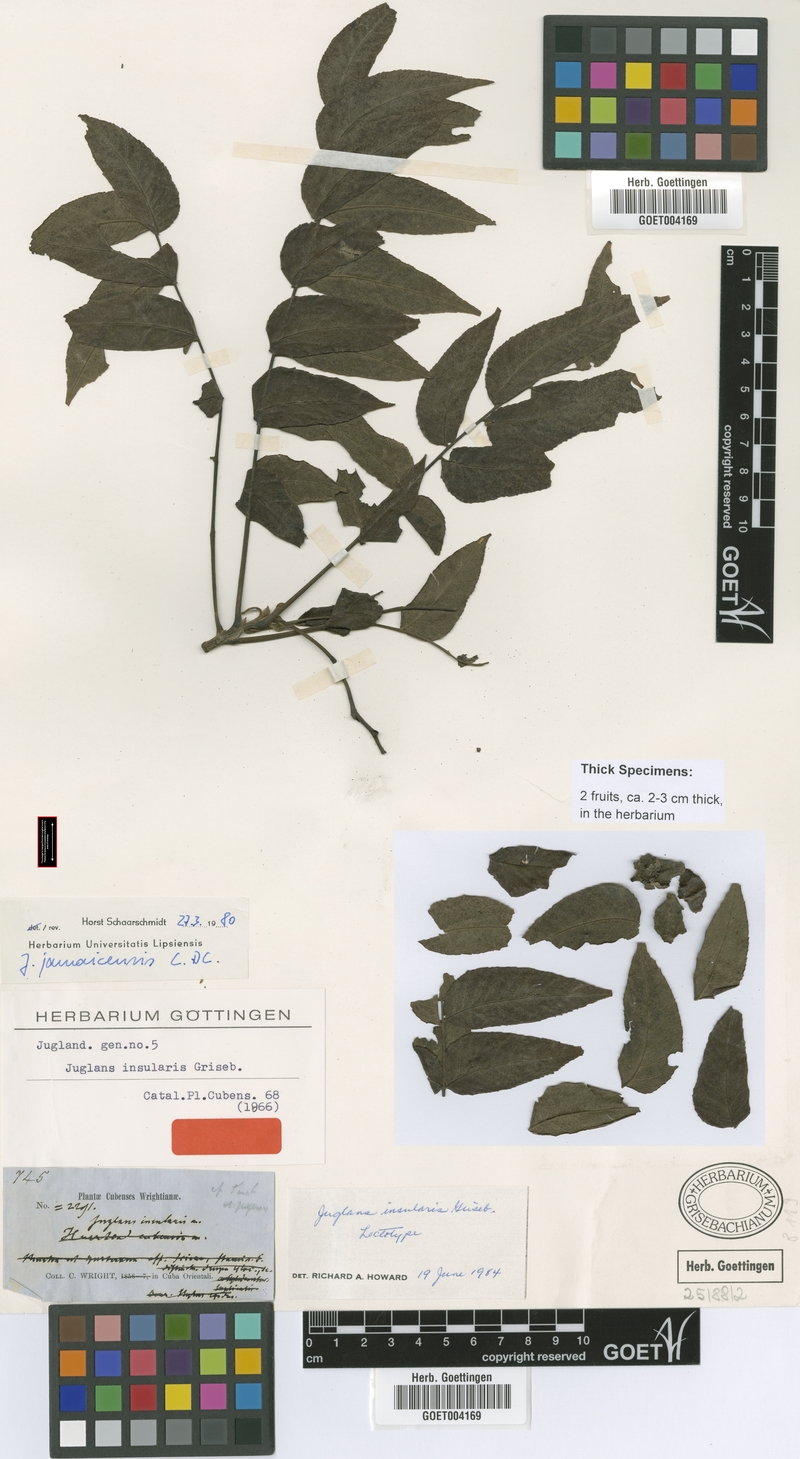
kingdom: Plantae
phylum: Tracheophyta
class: Magnoliopsida
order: Fagales
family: Juglandaceae
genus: Juglans
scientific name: Juglans jamaicensis
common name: West indian walnut
